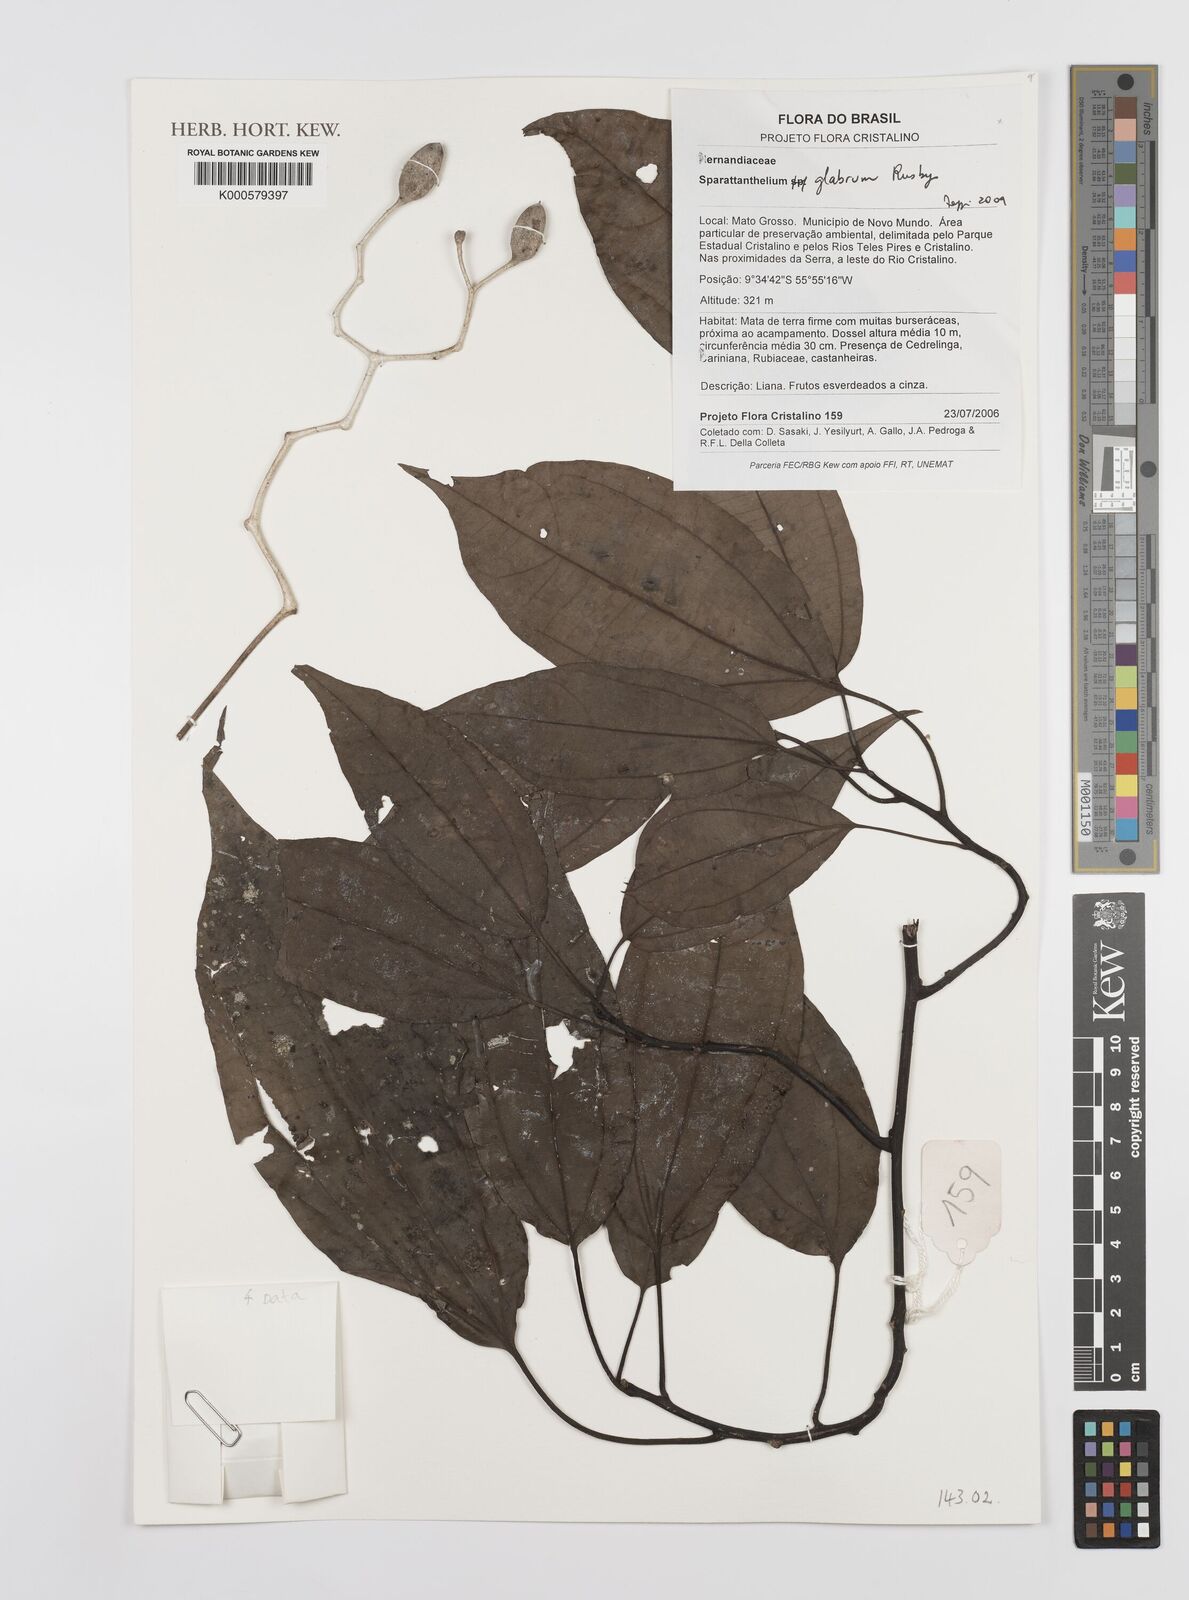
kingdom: Plantae
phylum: Tracheophyta
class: Magnoliopsida
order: Laurales
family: Hernandiaceae
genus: Sparattanthelium
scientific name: Sparattanthelium glabrum
